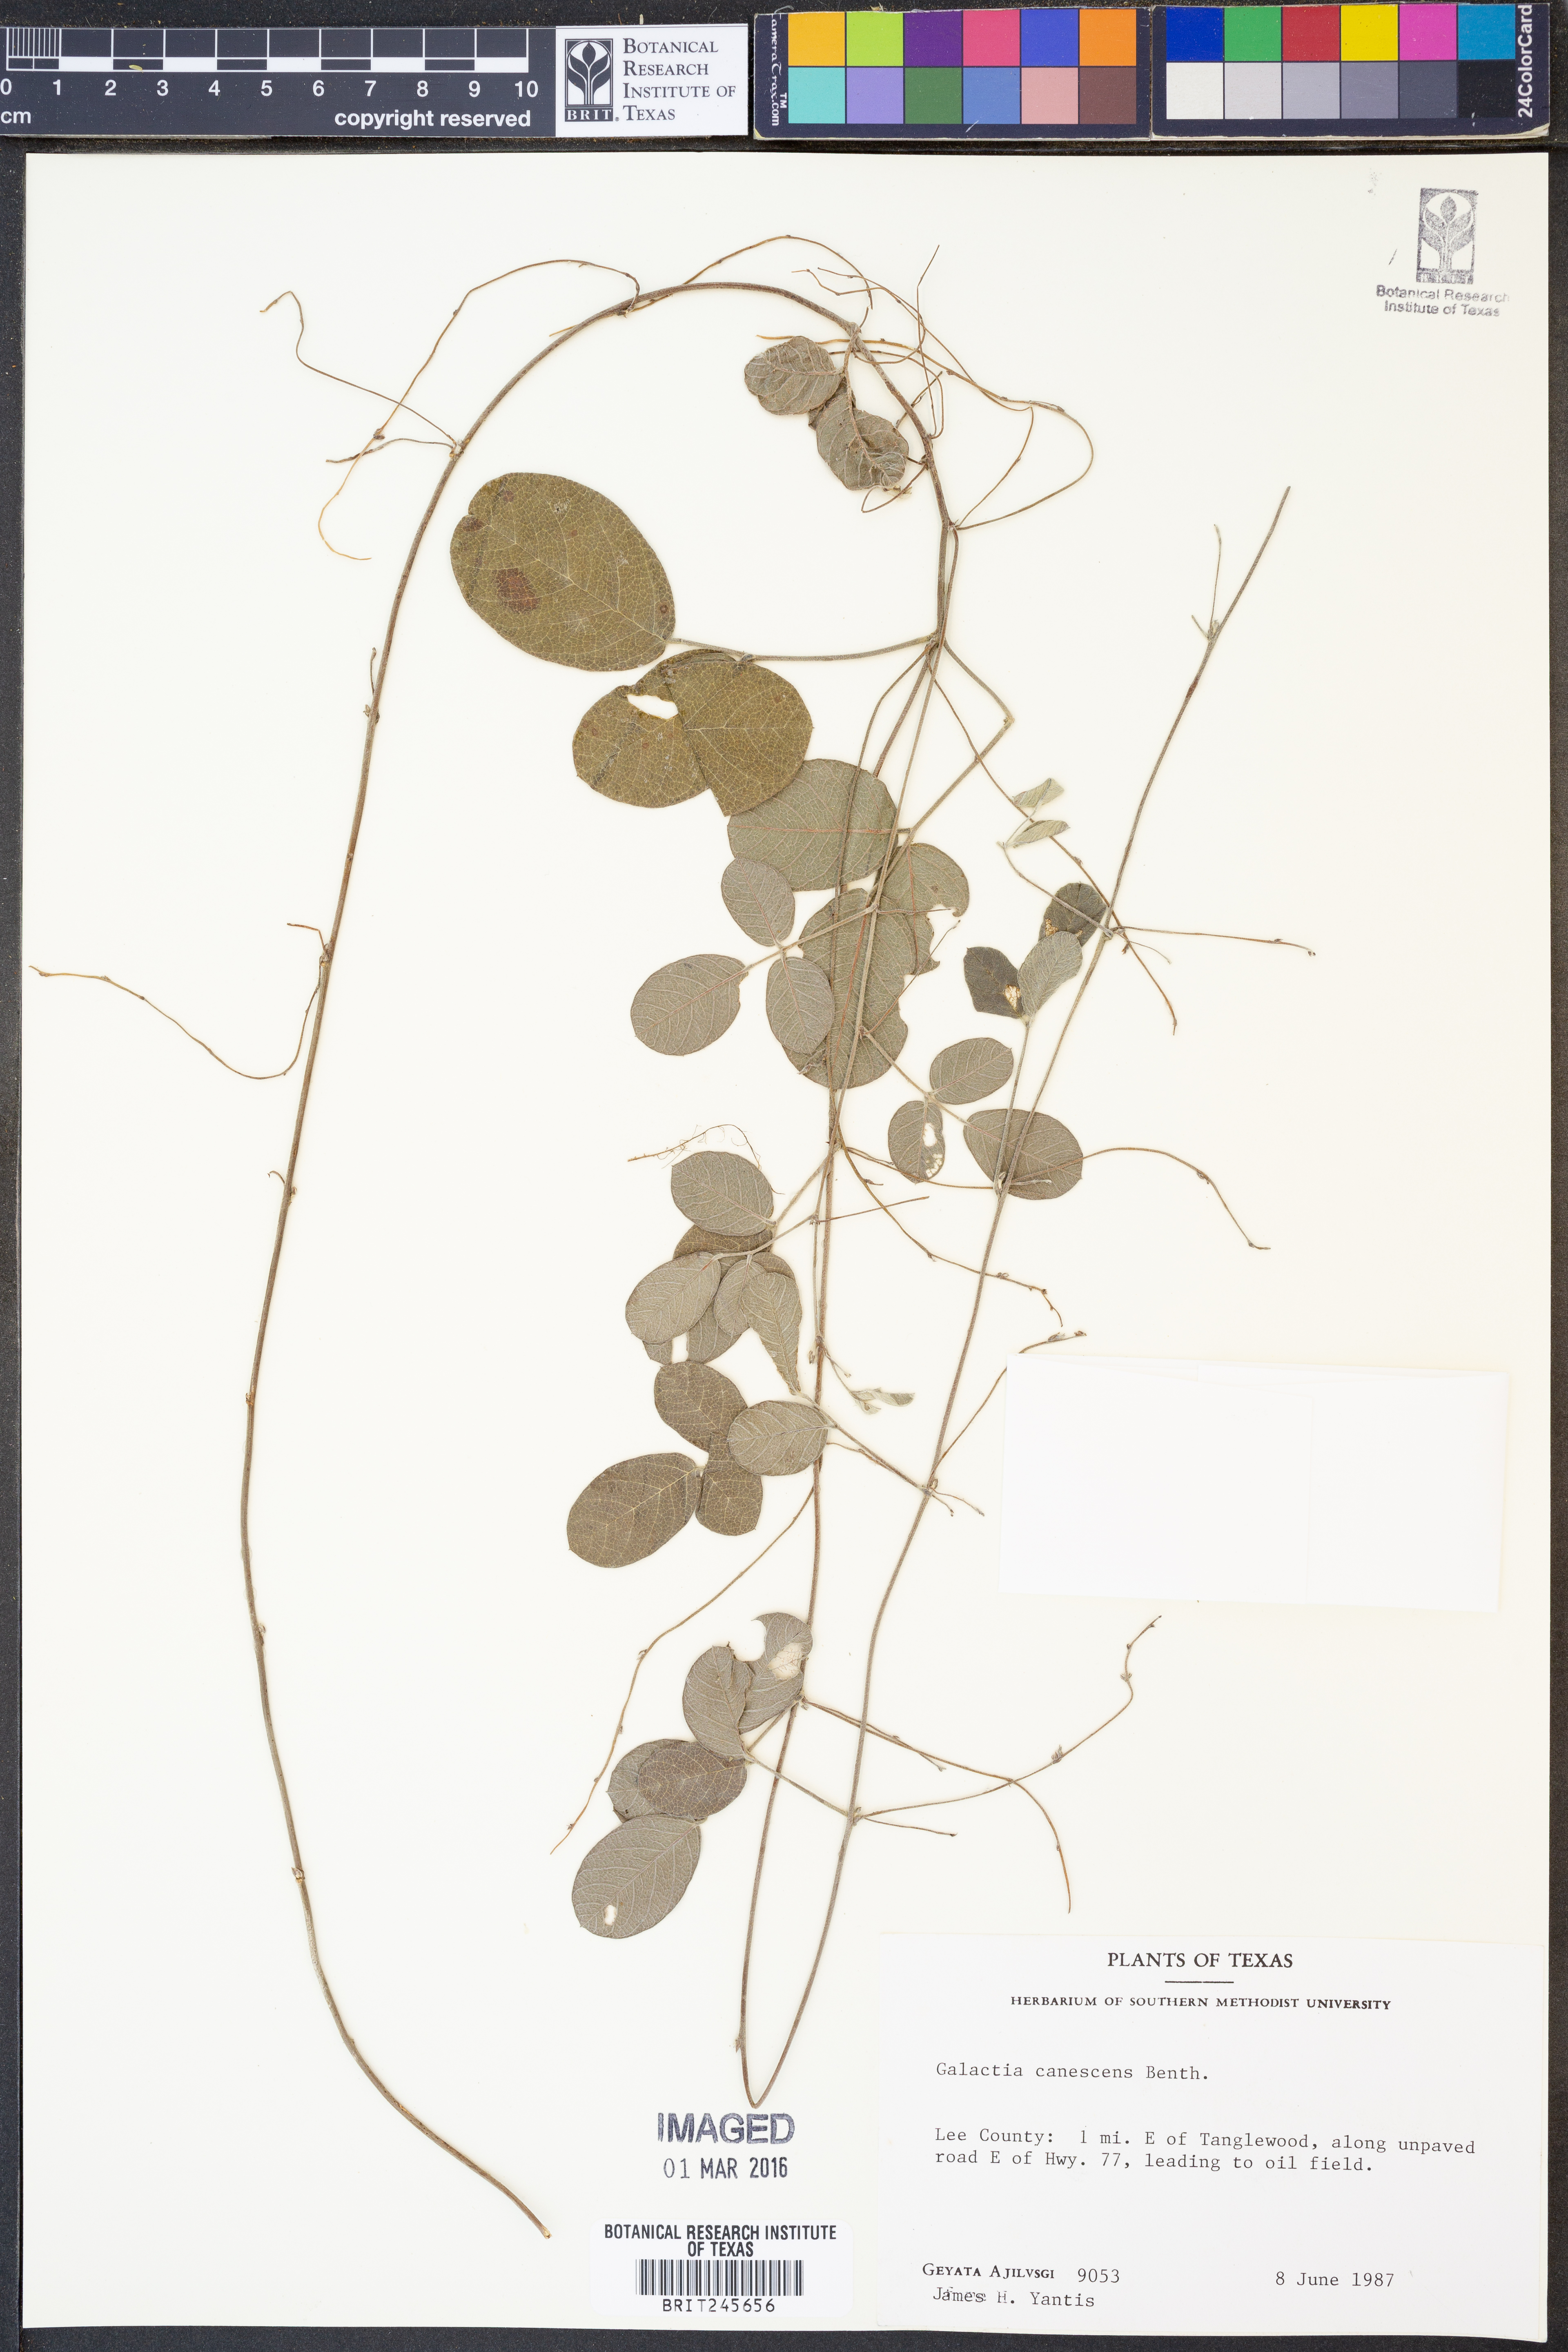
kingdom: Plantae
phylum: Tracheophyta
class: Magnoliopsida
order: Fabales
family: Fabaceae
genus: Galactia
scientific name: Galactia canescens
